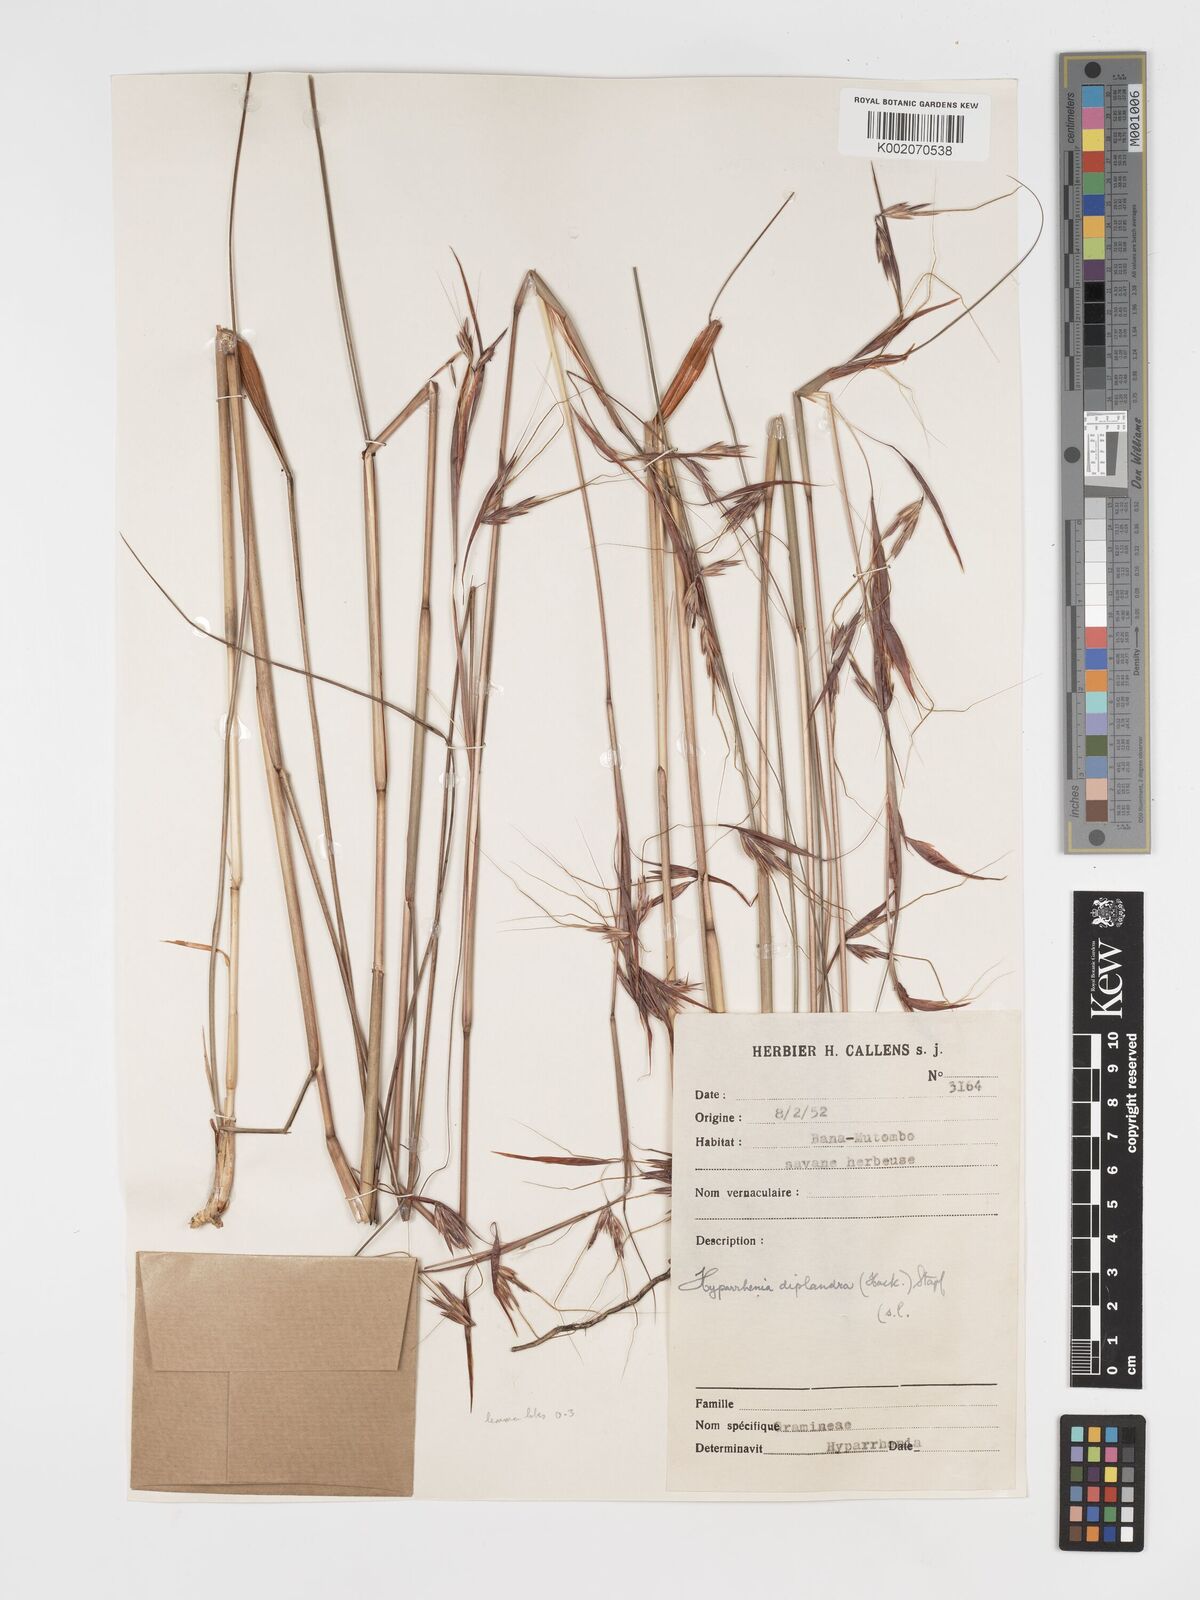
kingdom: Plantae
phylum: Tracheophyta
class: Liliopsida
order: Poales
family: Poaceae
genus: Hyparrhenia
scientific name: Hyparrhenia diplandra
